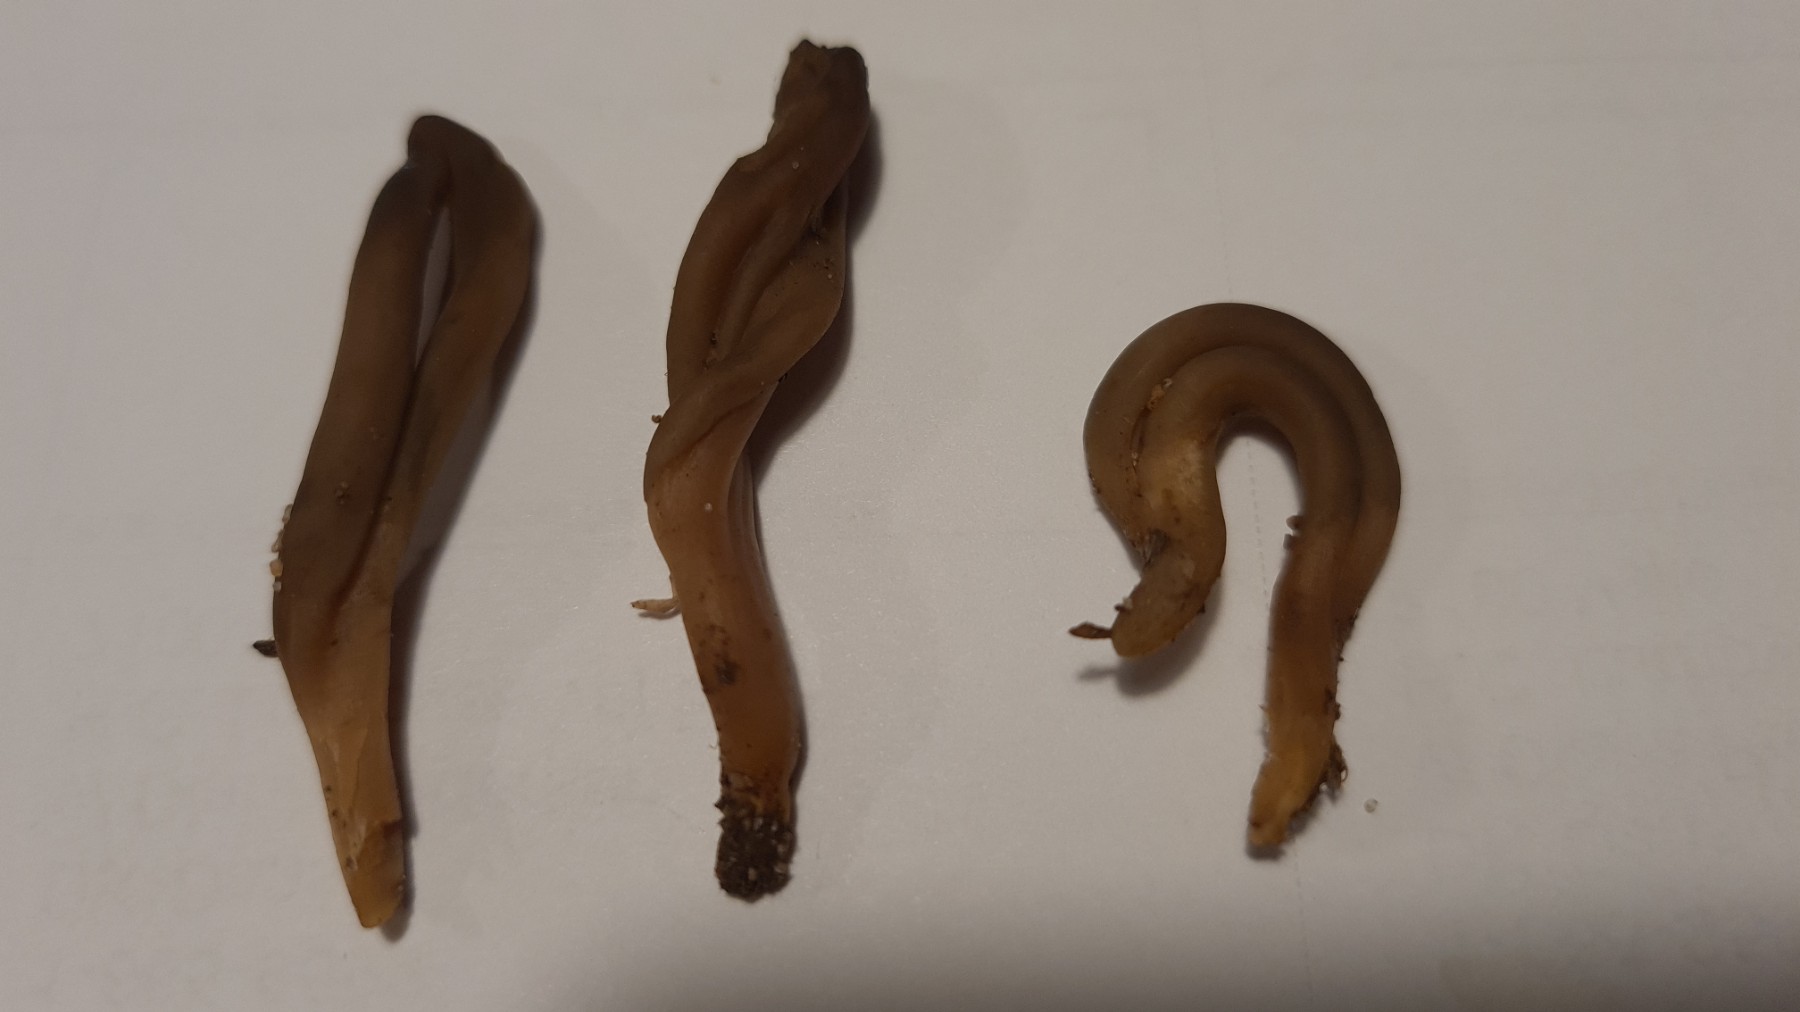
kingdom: Fungi
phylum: Ascomycota
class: Leotiomycetes
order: Leotiales
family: Leotiaceae
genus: Microglossum
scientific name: Microglossum olivaceum
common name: olivenbrun farvetunge
